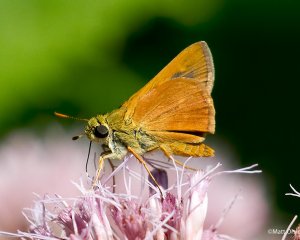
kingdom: Animalia
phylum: Arthropoda
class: Insecta
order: Lepidoptera
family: Hesperiidae
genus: Wallengrenia
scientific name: Wallengrenia otho
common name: Southern Broken-Dash
